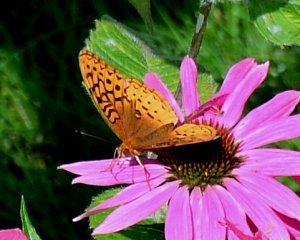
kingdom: Animalia
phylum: Arthropoda
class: Insecta
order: Lepidoptera
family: Nymphalidae
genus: Speyeria
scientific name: Speyeria cybele
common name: Great Spangled Fritillary
